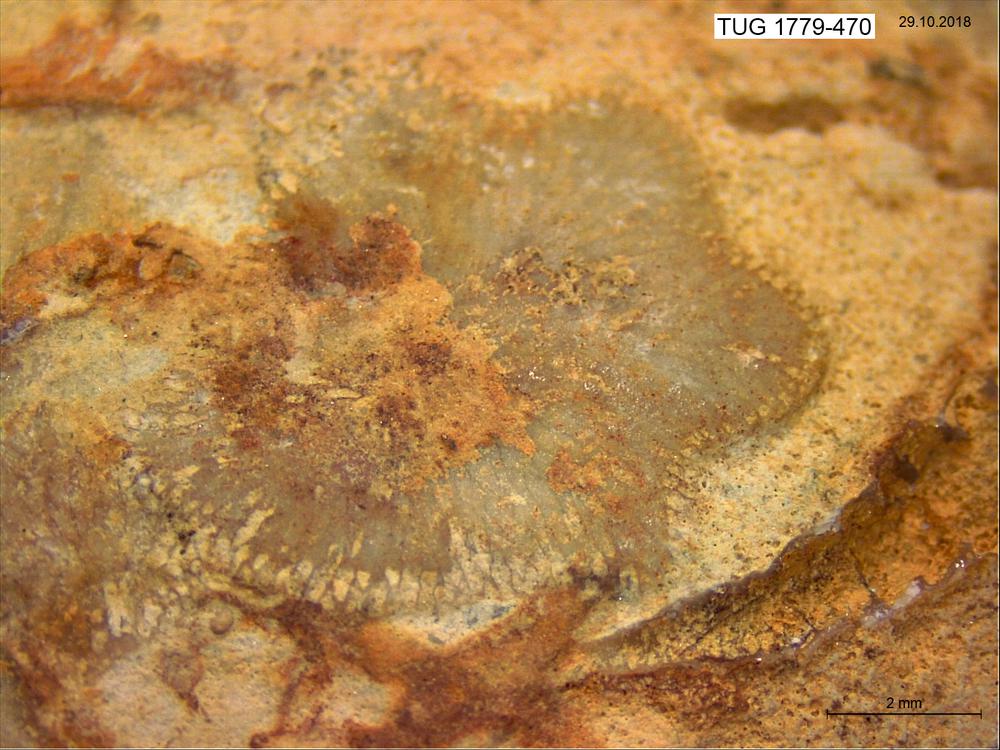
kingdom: Animalia
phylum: Bryozoa
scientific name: Bryozoa
